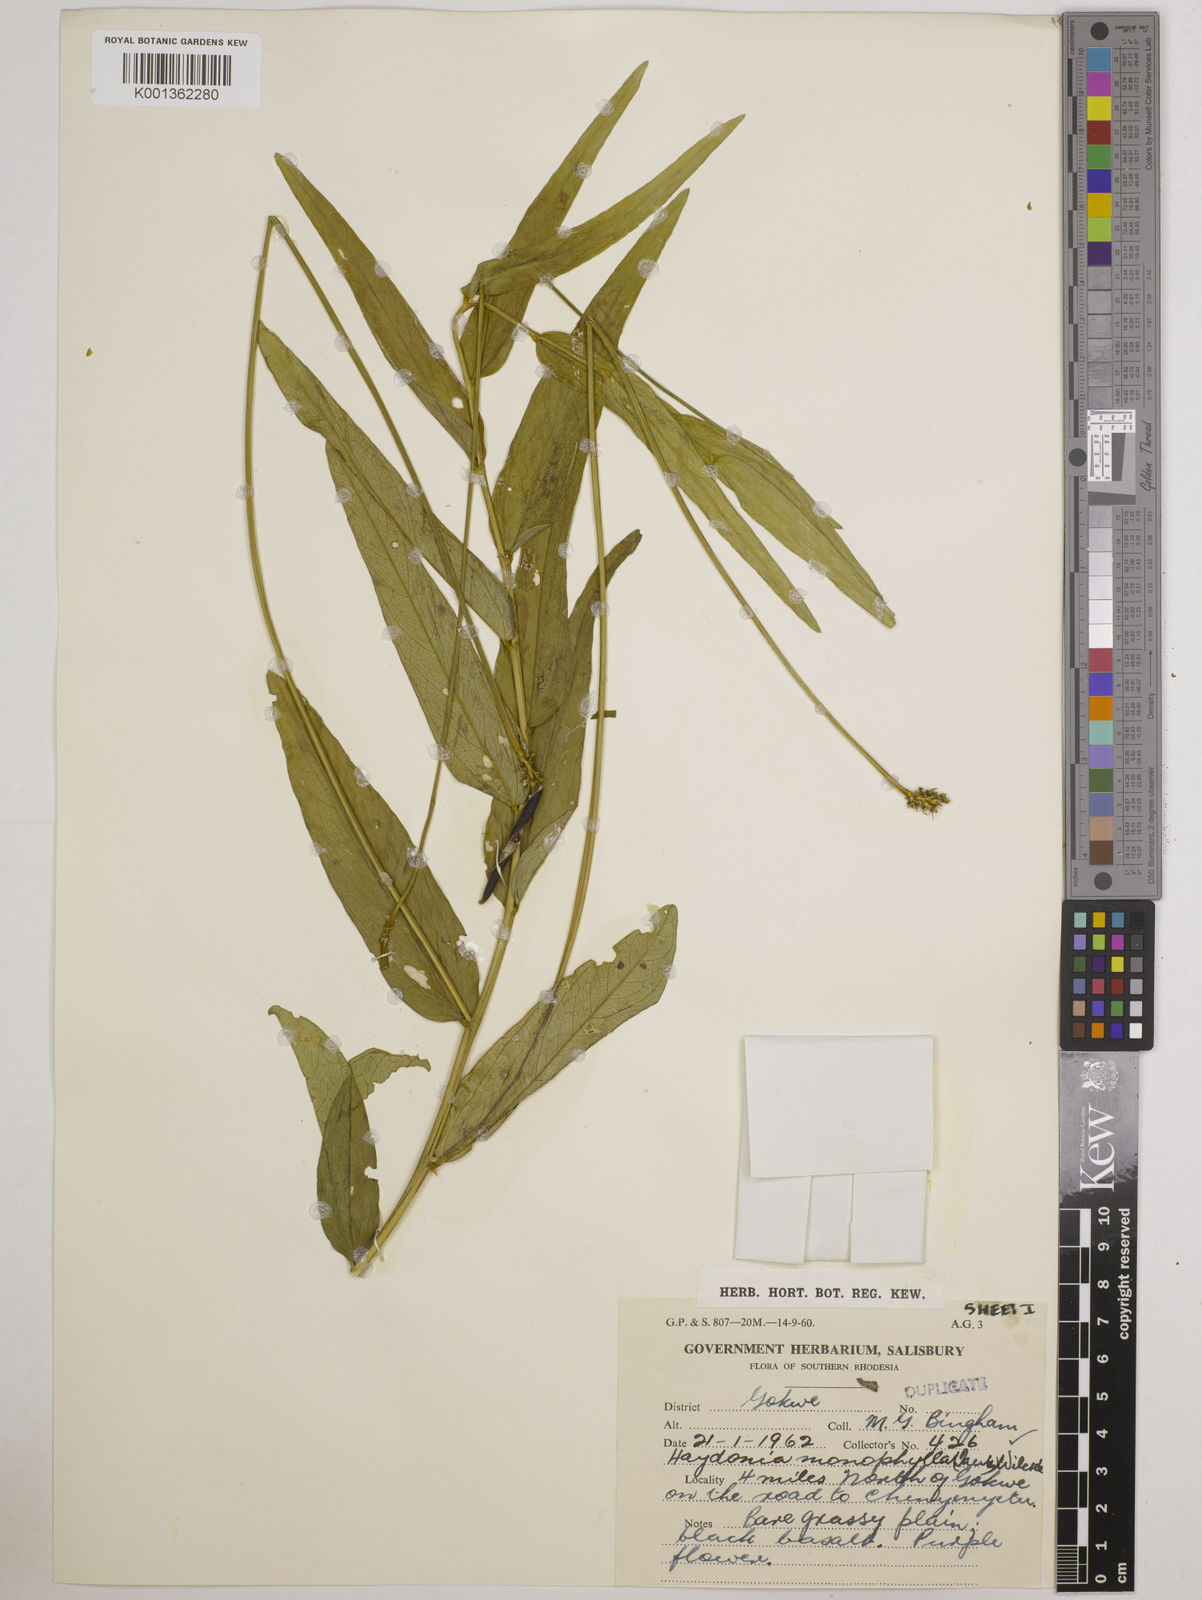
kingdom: Plantae
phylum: Tracheophyta
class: Magnoliopsida
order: Fabales
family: Fabaceae
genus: Vigna
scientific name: Vigna monophylla
